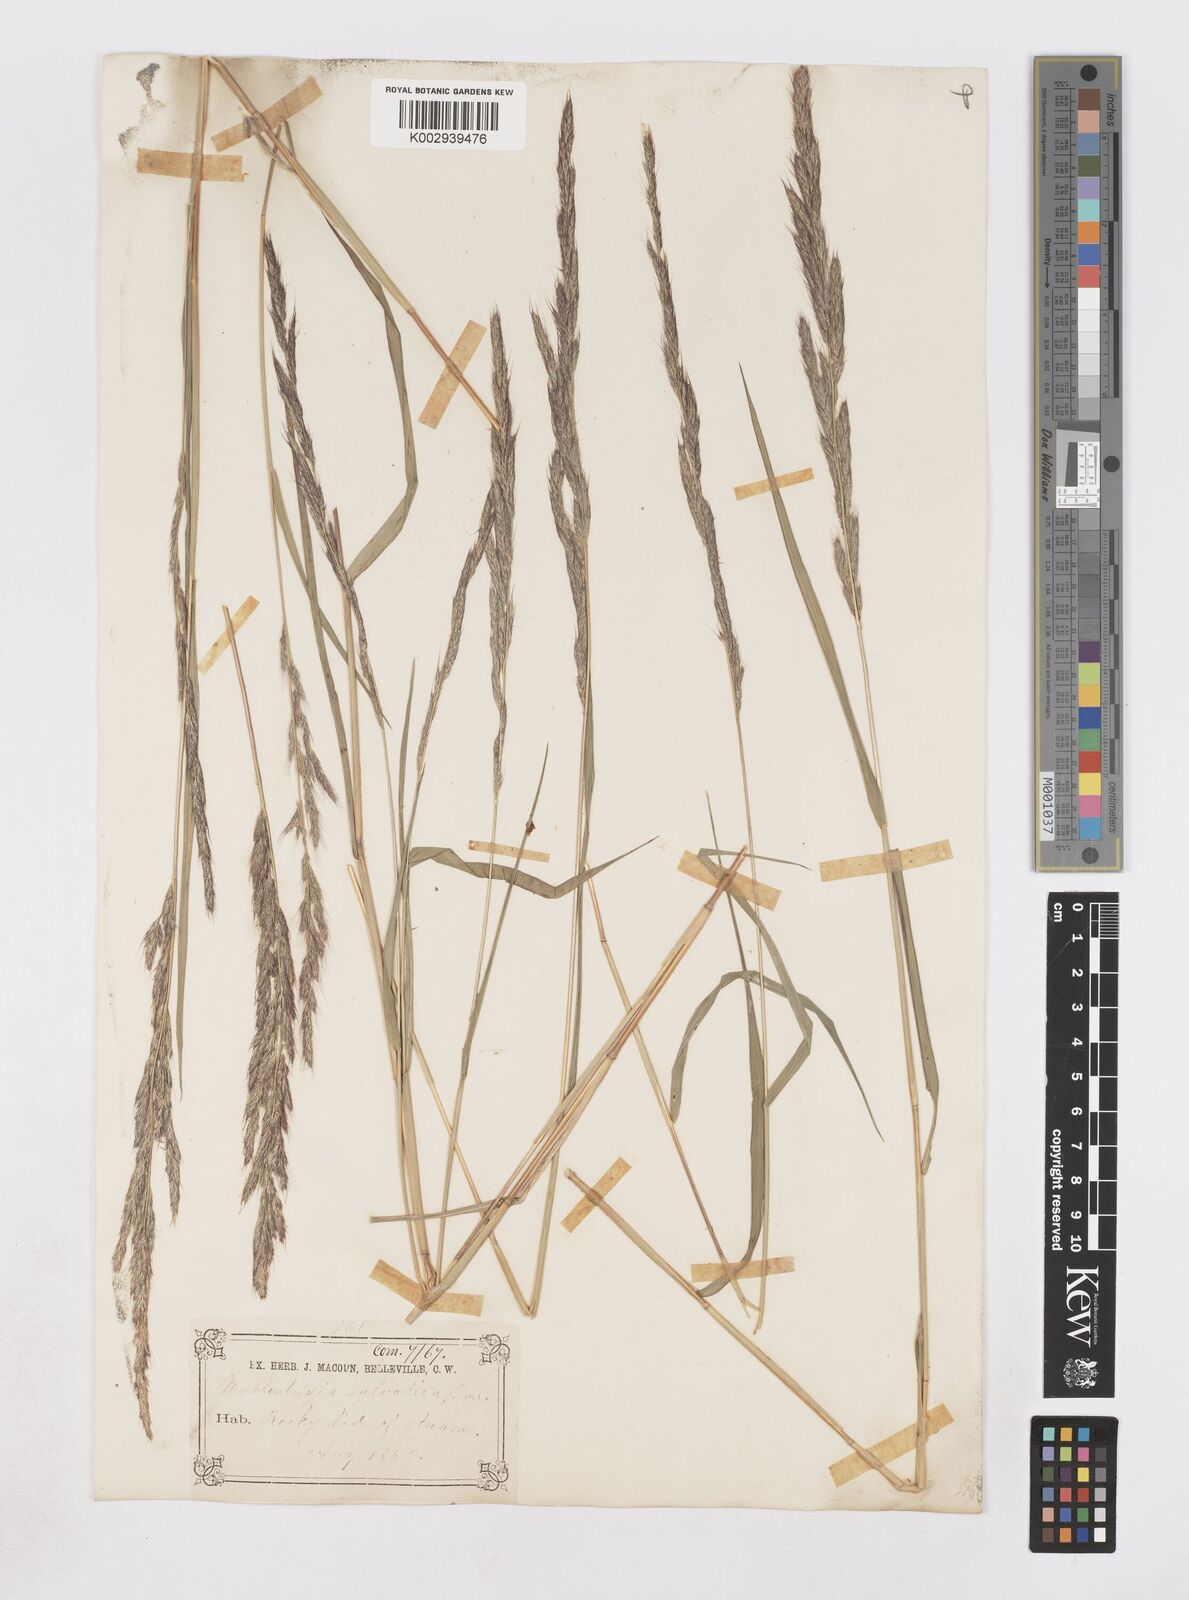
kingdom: Plantae
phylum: Tracheophyta
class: Liliopsida
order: Poales
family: Poaceae
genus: Muhlenbergia
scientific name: Muhlenbergia sylvatica
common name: Woodland muhly
